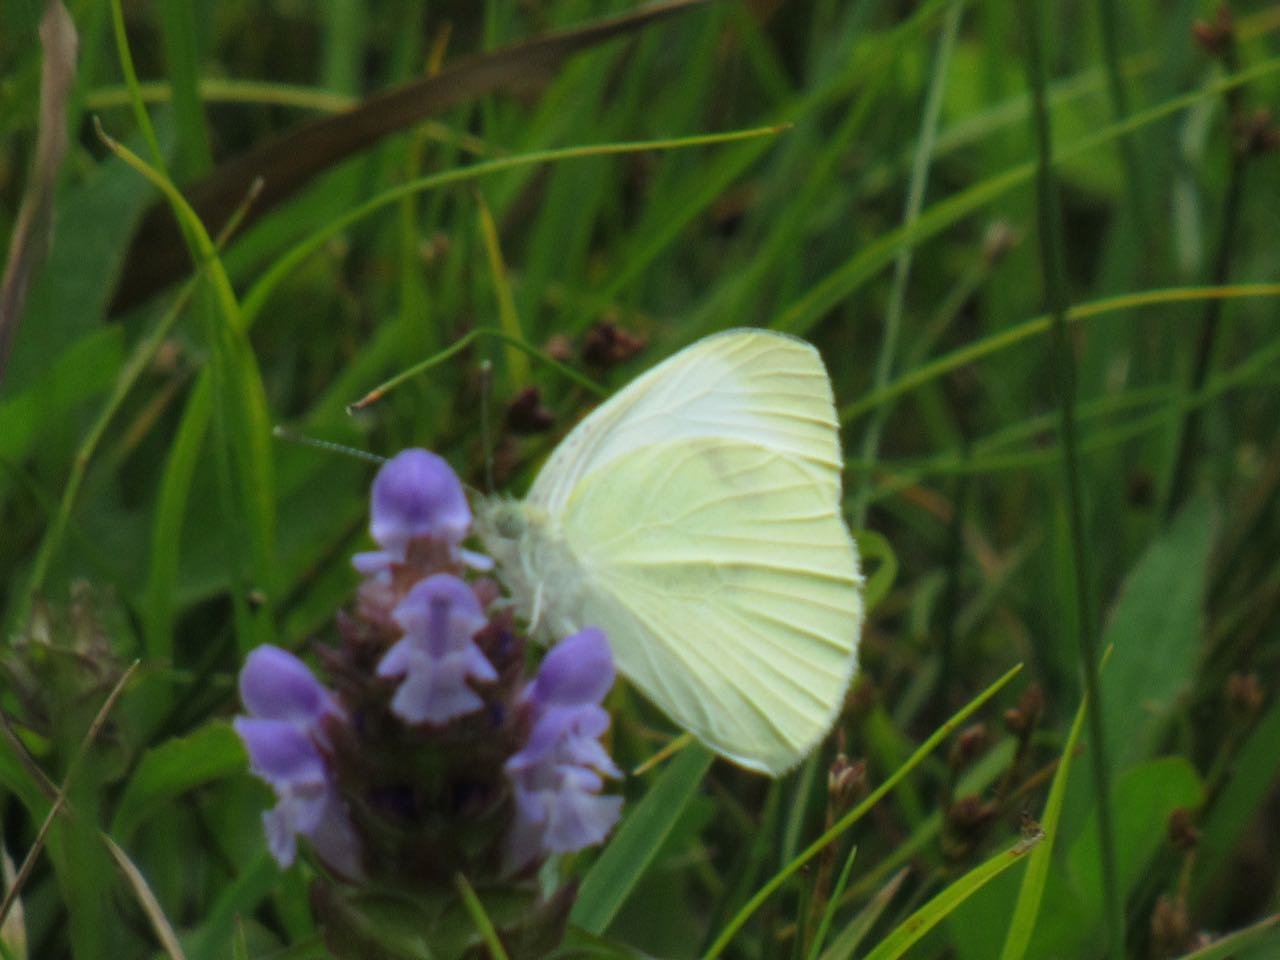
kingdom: Animalia
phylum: Arthropoda
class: Insecta
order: Lepidoptera
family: Pieridae
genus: Pieris
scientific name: Pieris rapae
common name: Cabbage White
